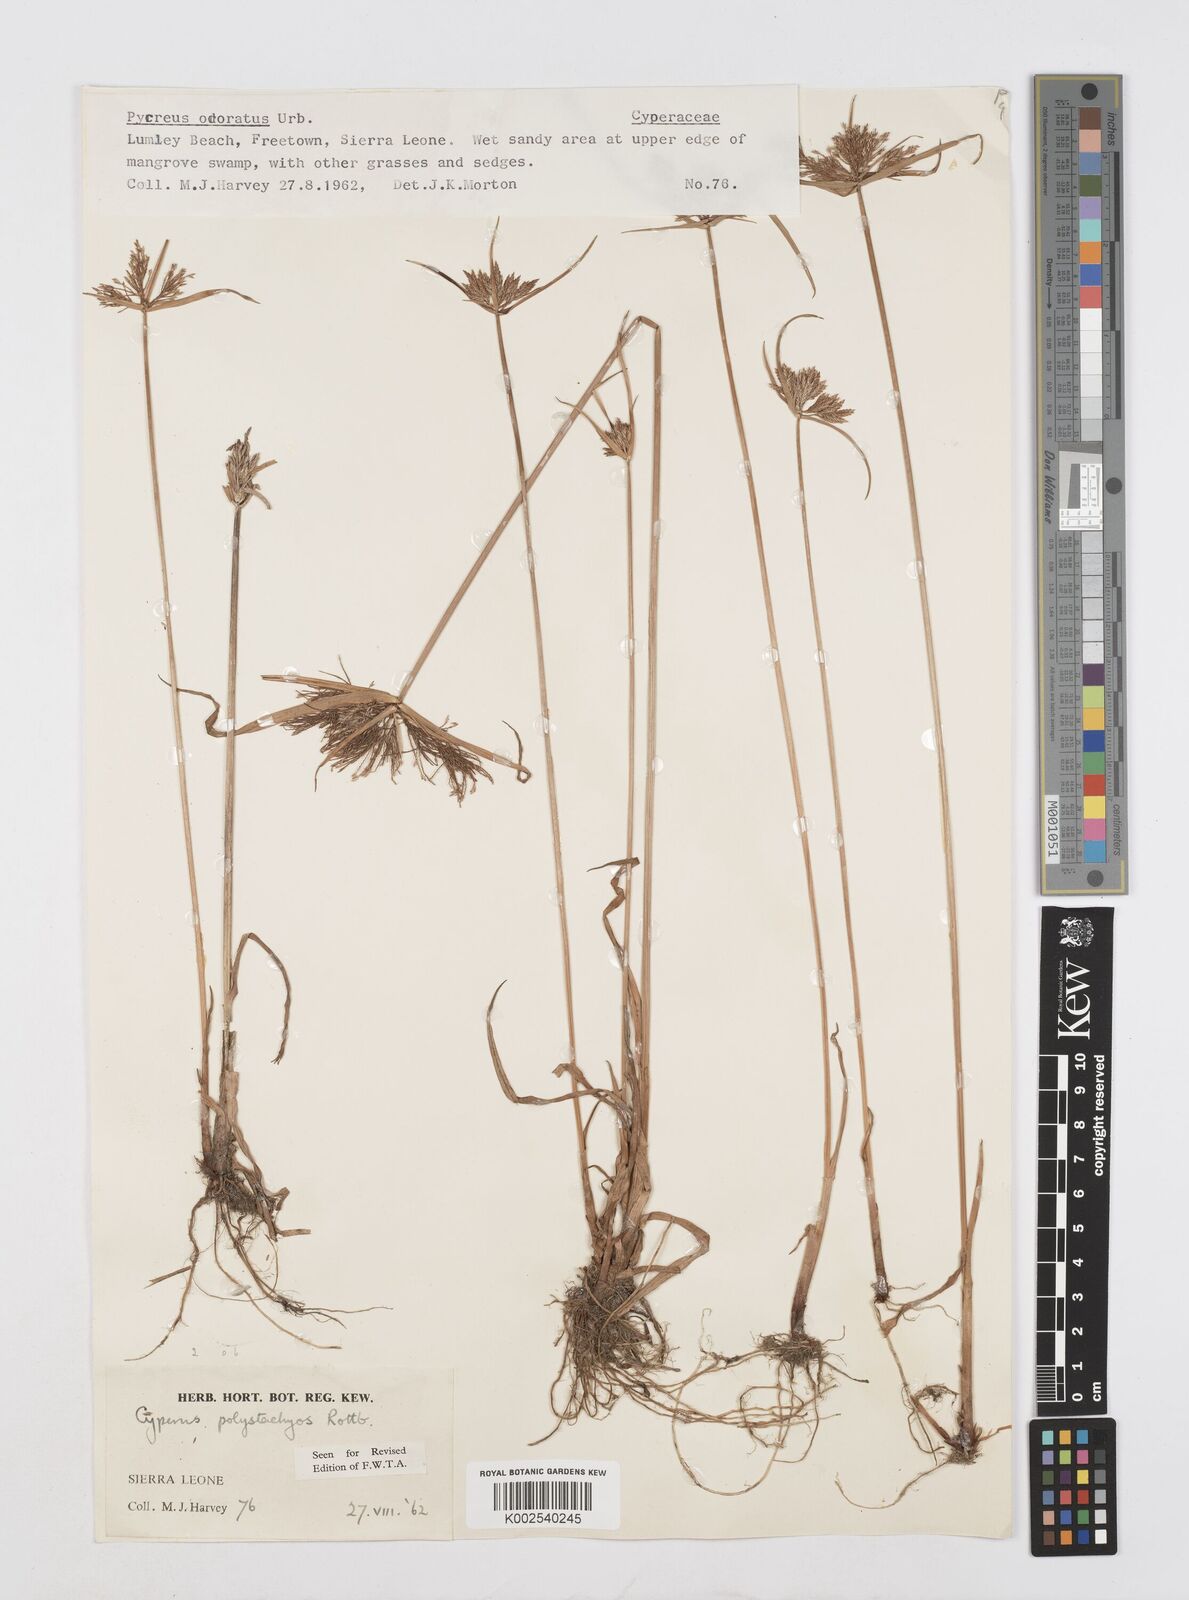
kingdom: Plantae
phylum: Tracheophyta
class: Liliopsida
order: Poales
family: Cyperaceae
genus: Cyperus
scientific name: Cyperus polystachyos
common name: Bunchy flat sedge
